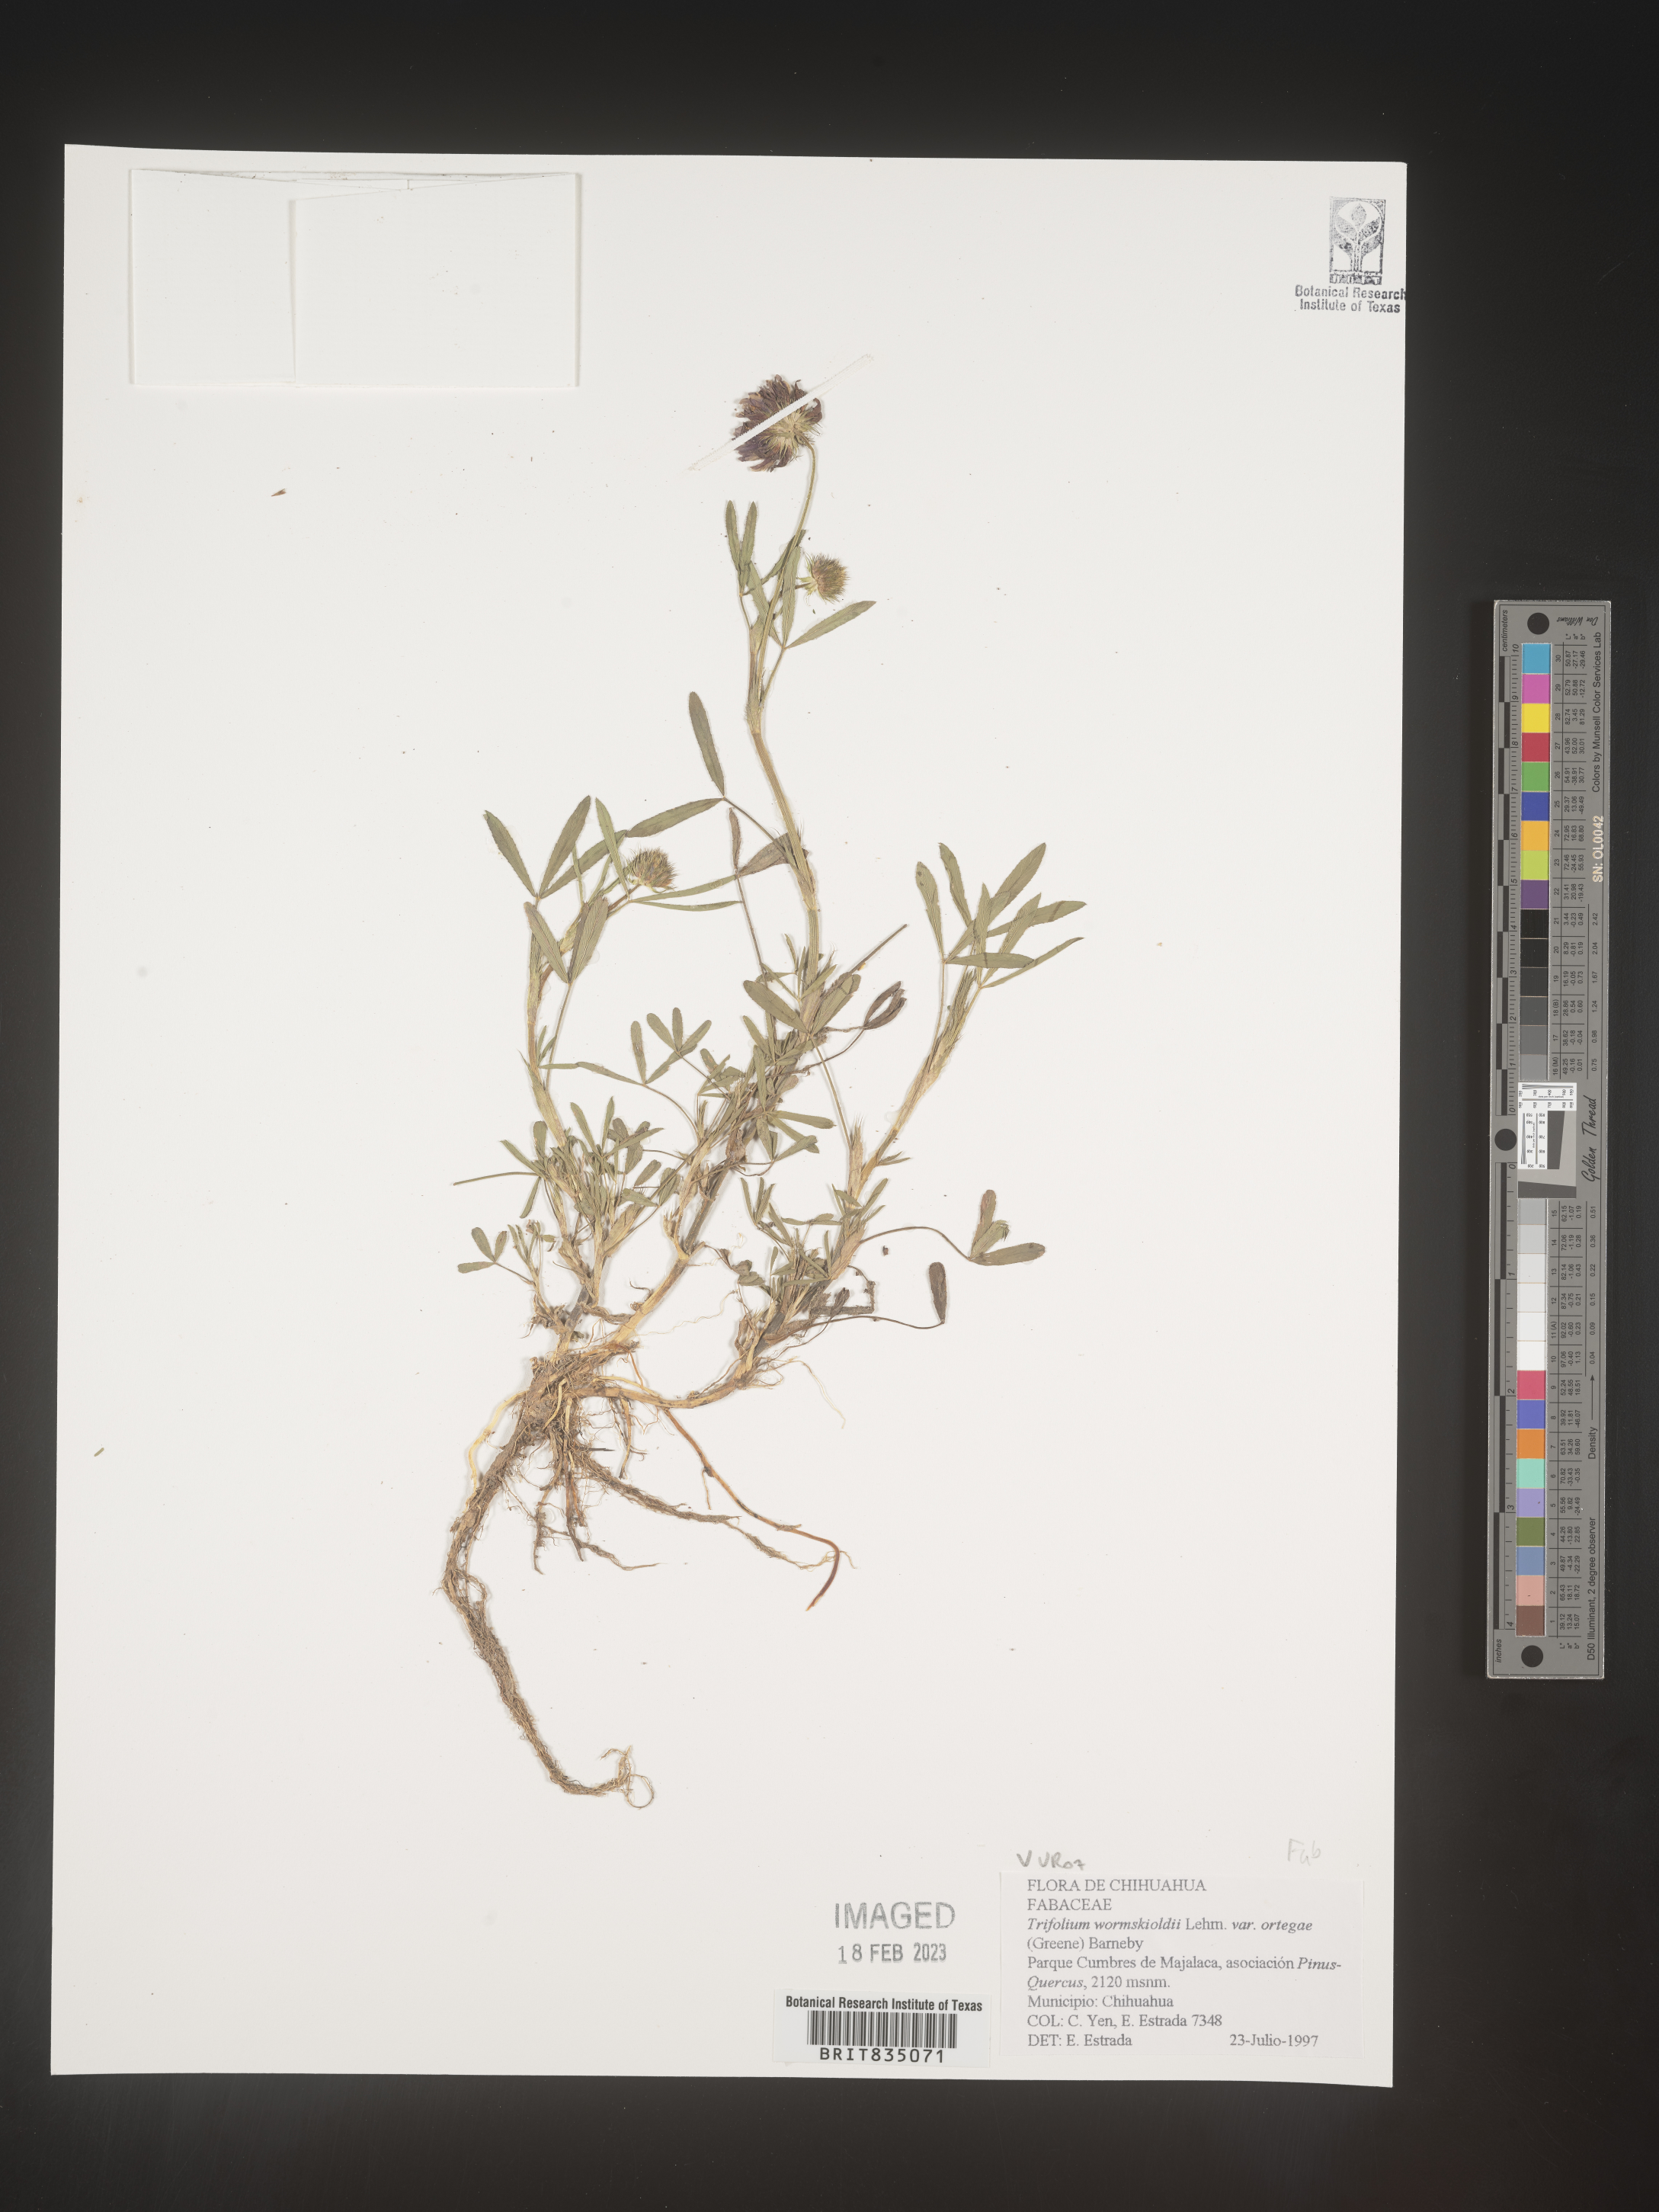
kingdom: Plantae
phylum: Tracheophyta
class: Magnoliopsida
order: Fabales
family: Fabaceae
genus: Trifolium
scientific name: Trifolium
